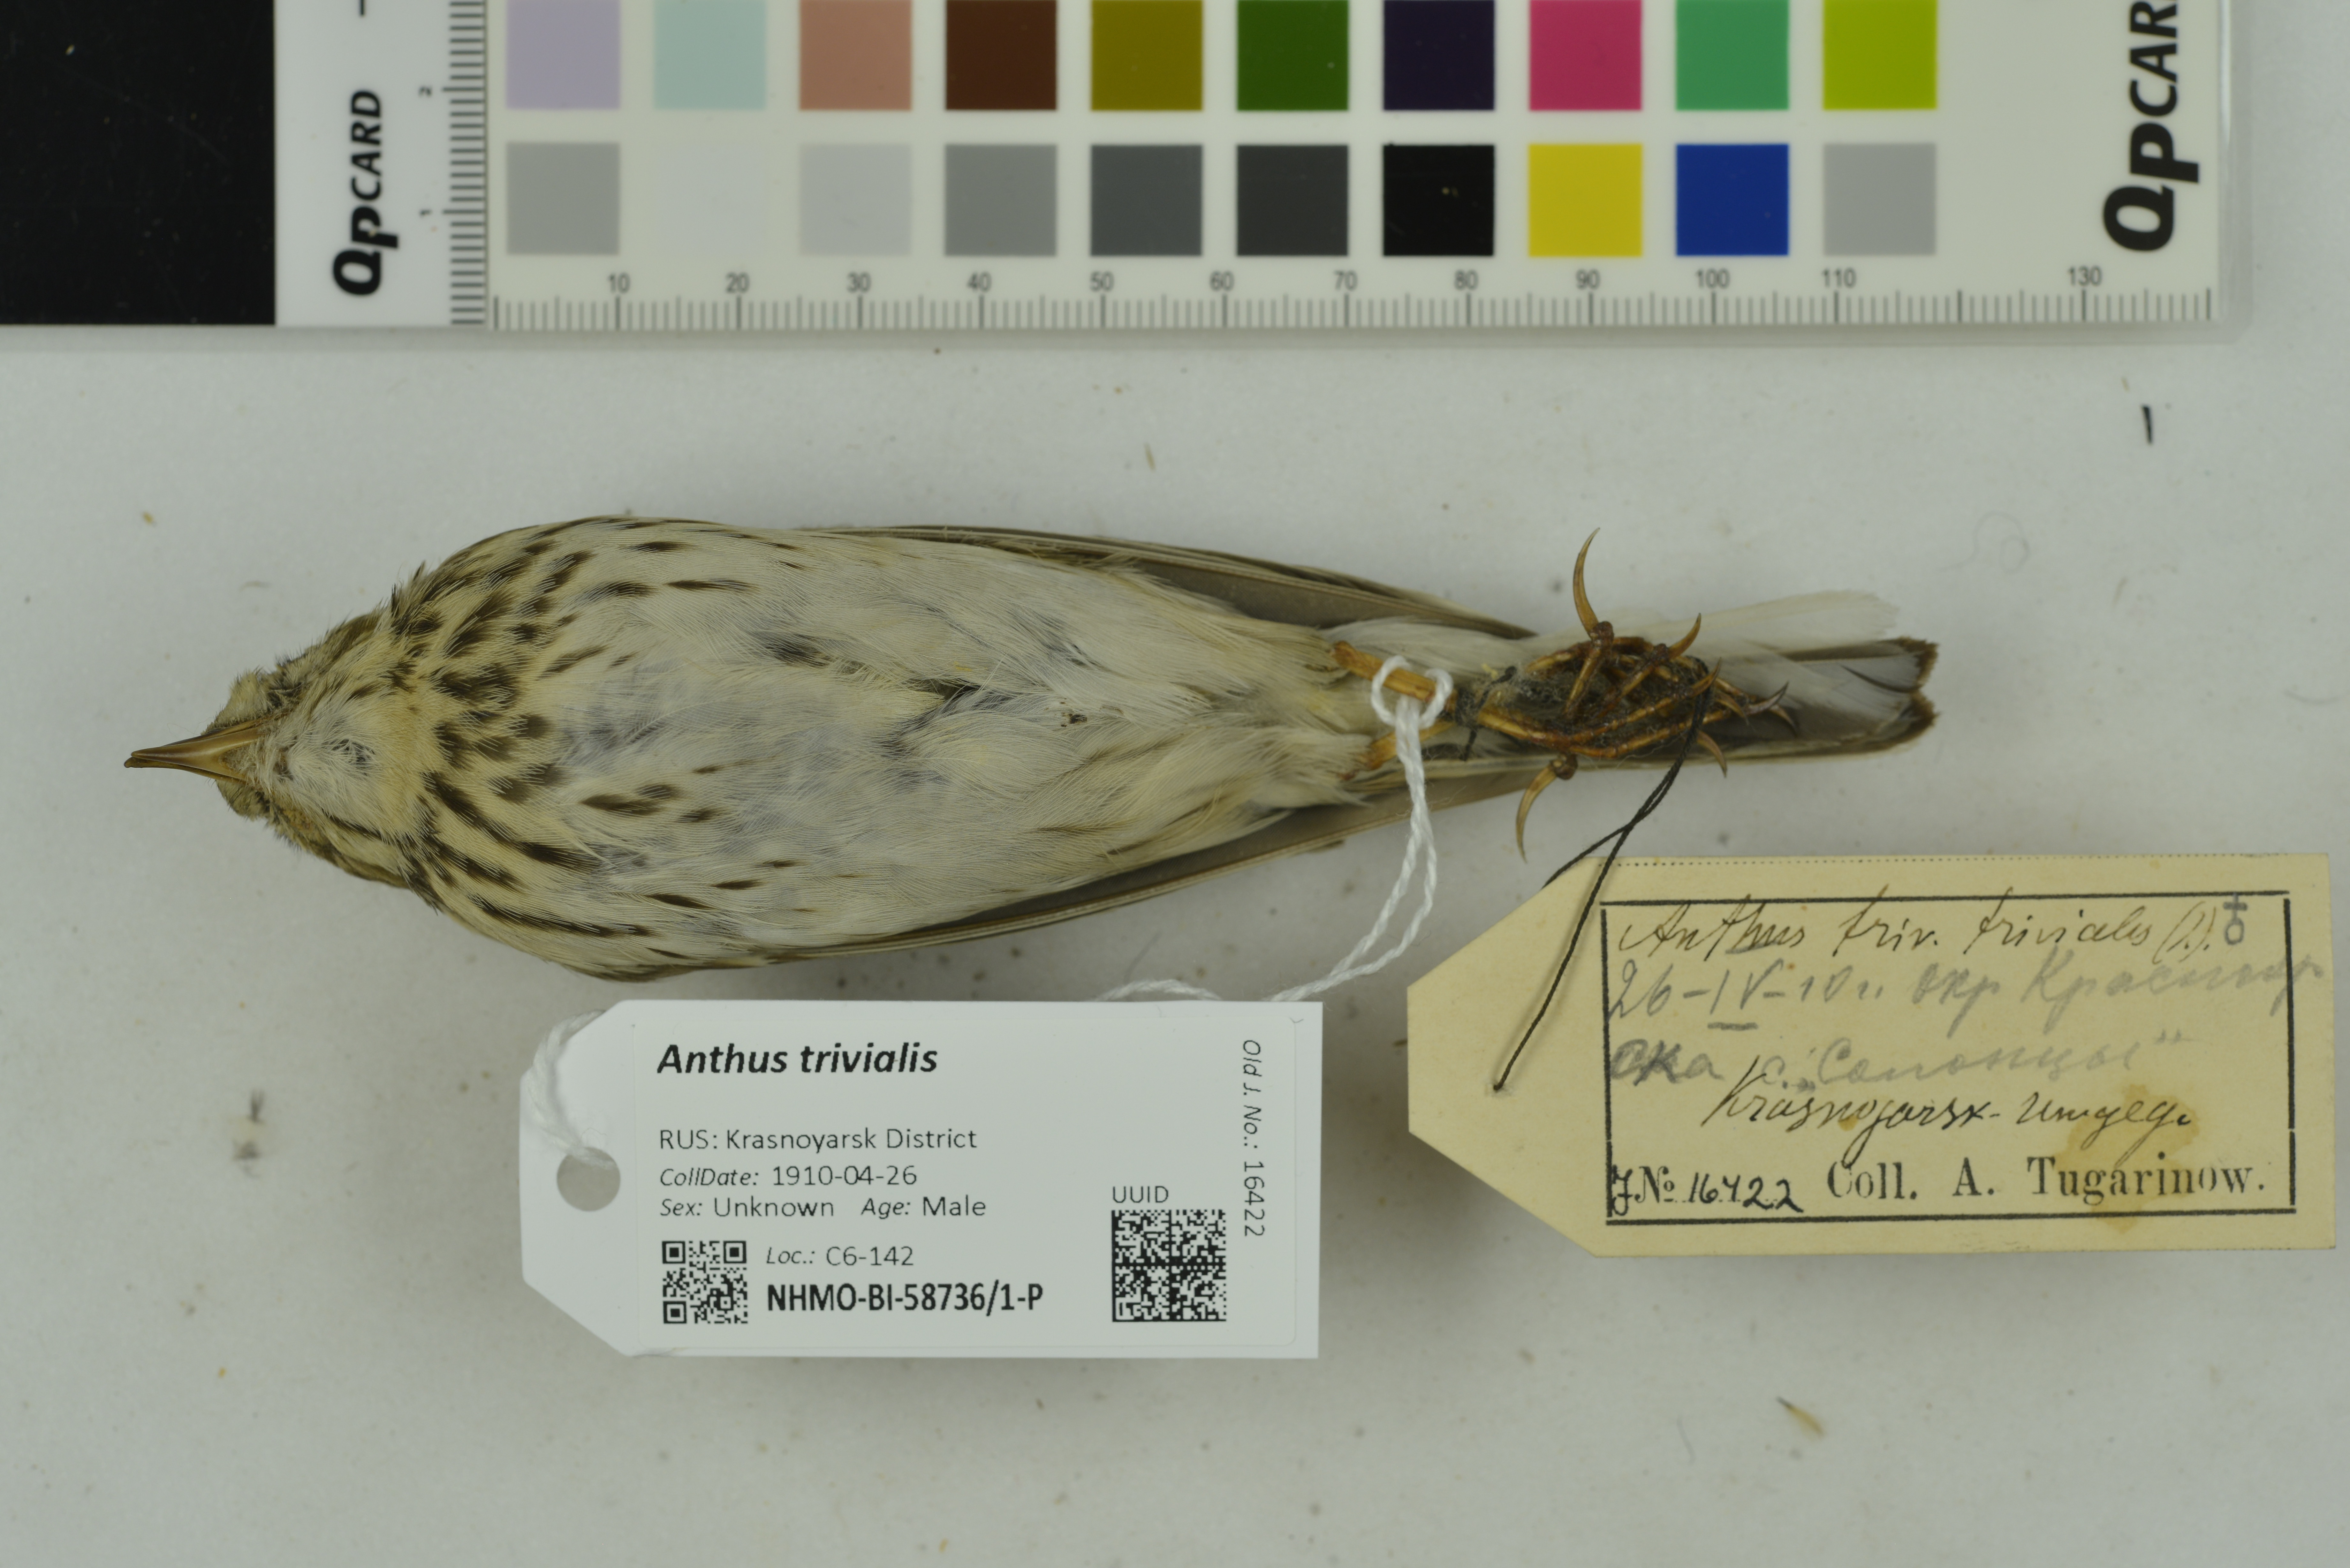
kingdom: Animalia
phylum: Chordata
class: Aves
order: Passeriformes
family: Motacillidae
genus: Anthus
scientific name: Anthus trivialis
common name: Tree pipit
